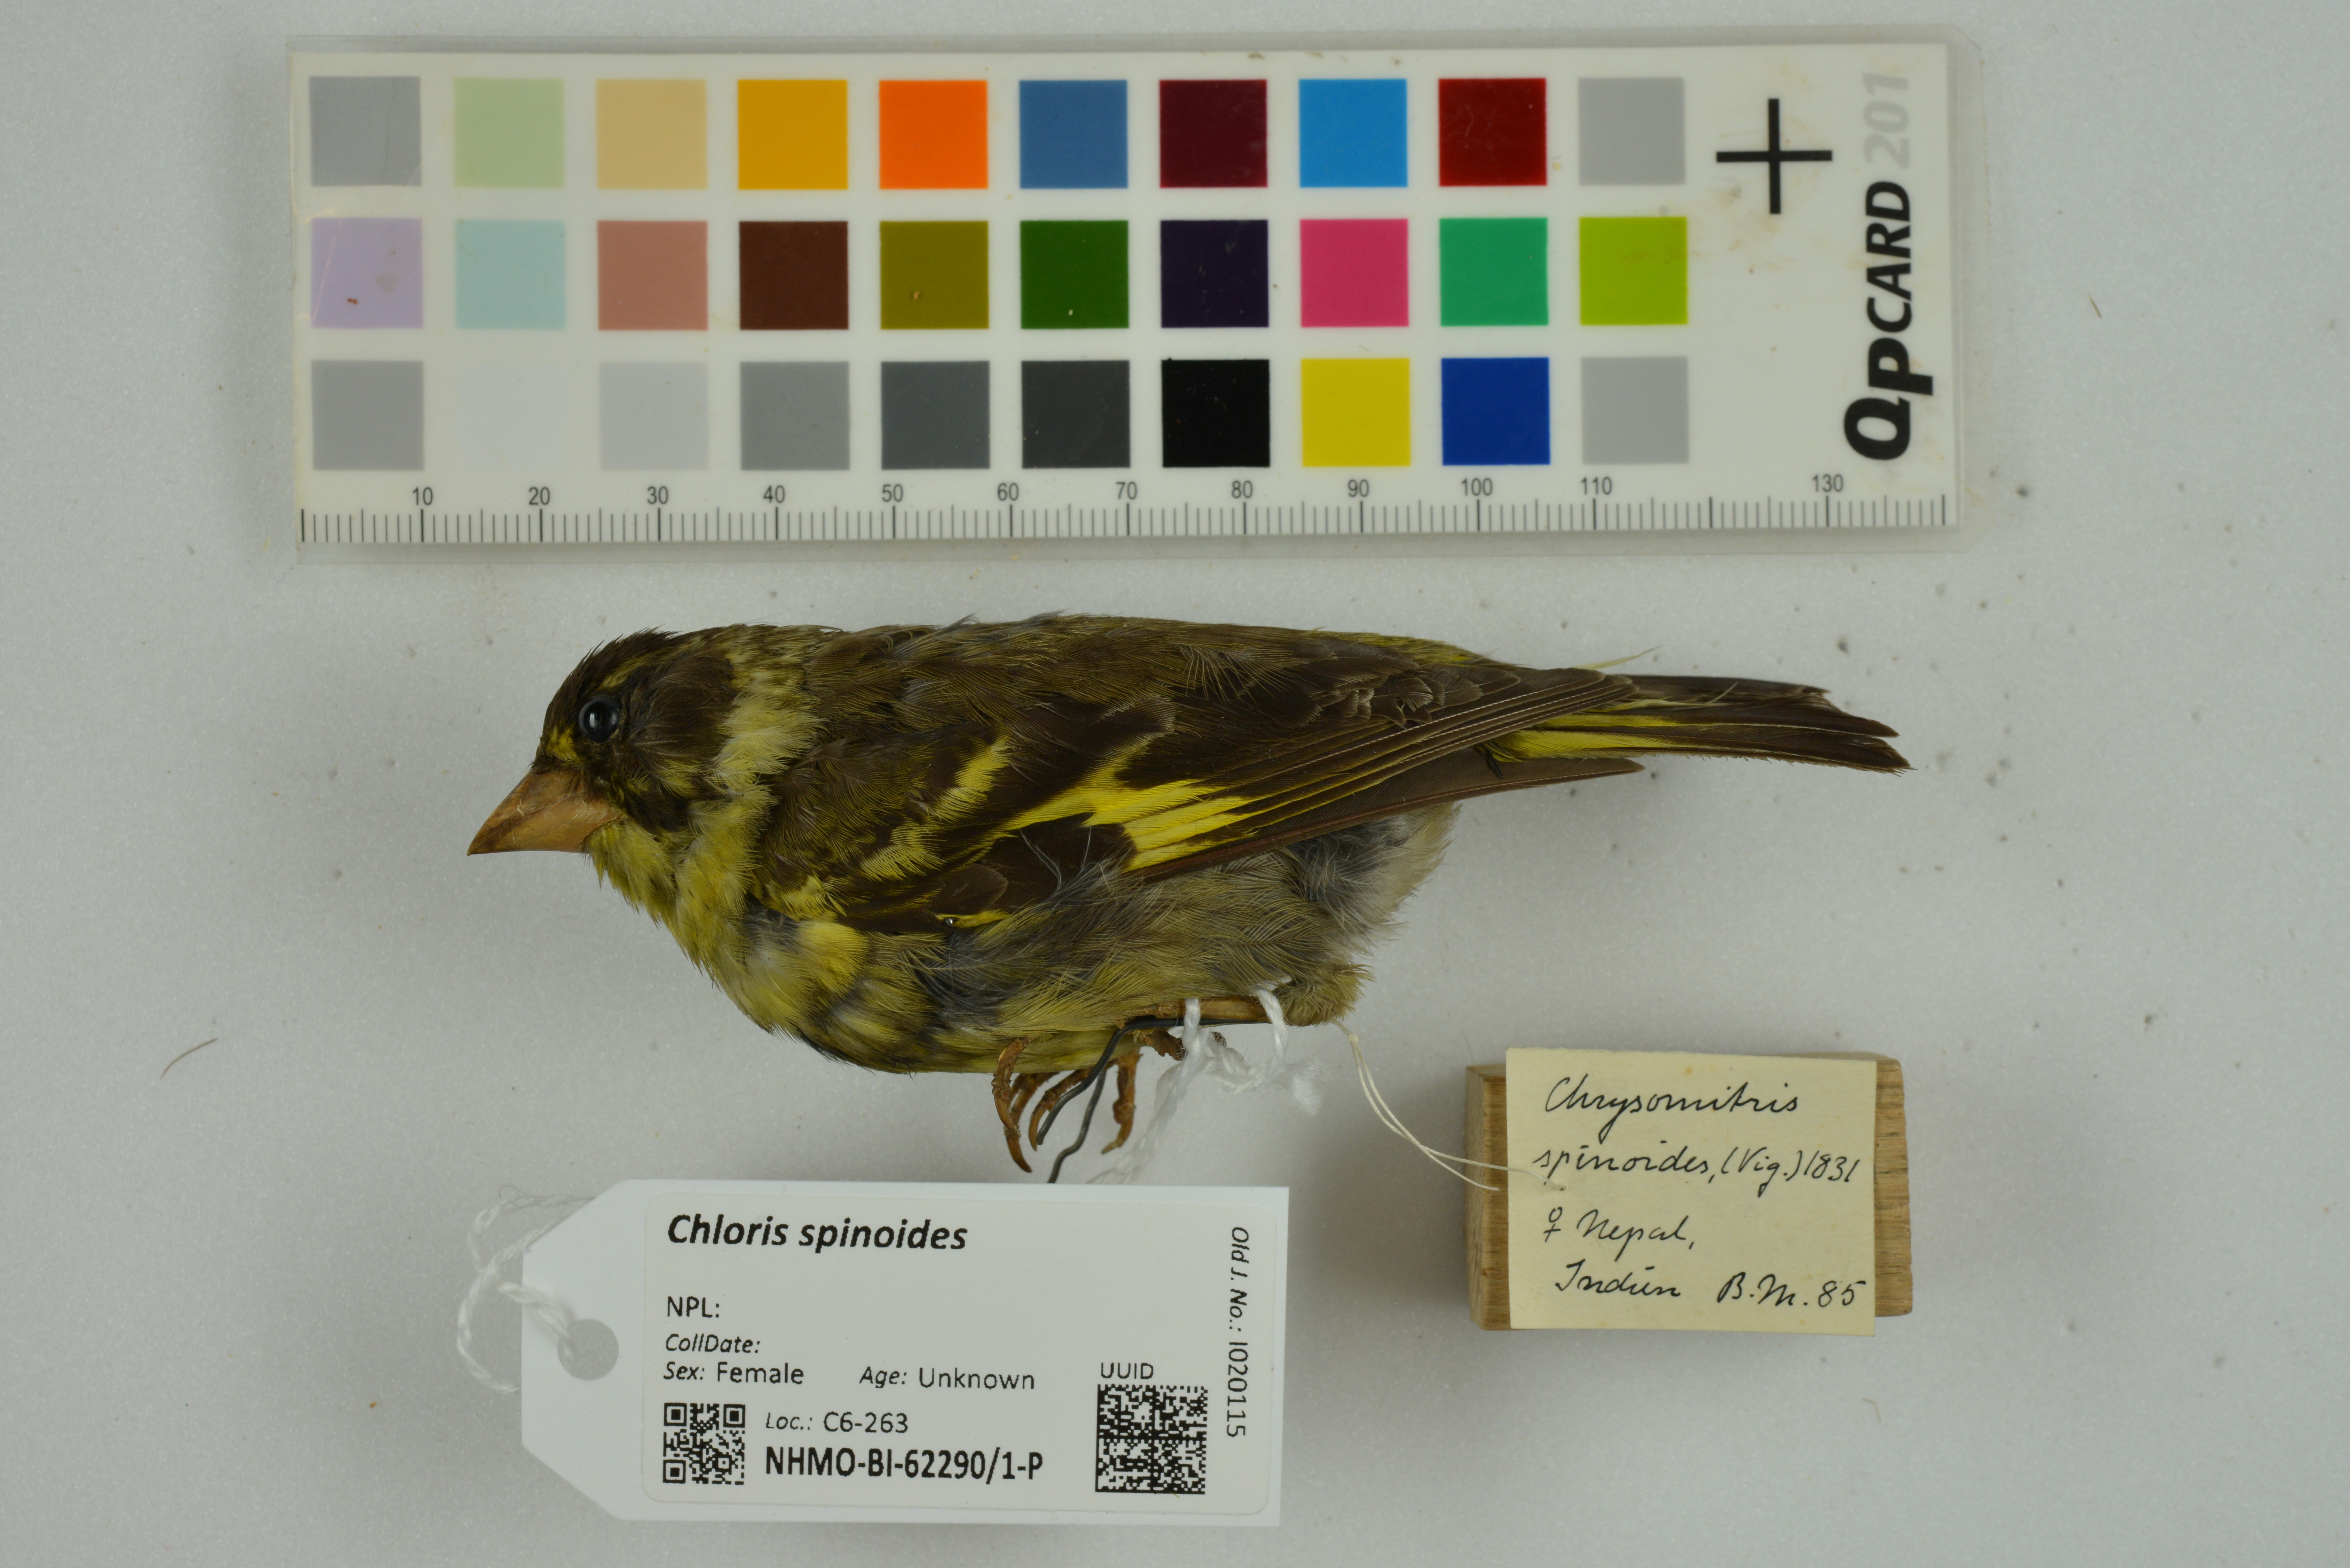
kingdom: Animalia
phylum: Chordata
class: Aves
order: Passeriformes
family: Fringillidae
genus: Chloris
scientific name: Chloris spinoides
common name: Yellow-breasted greenfinch
